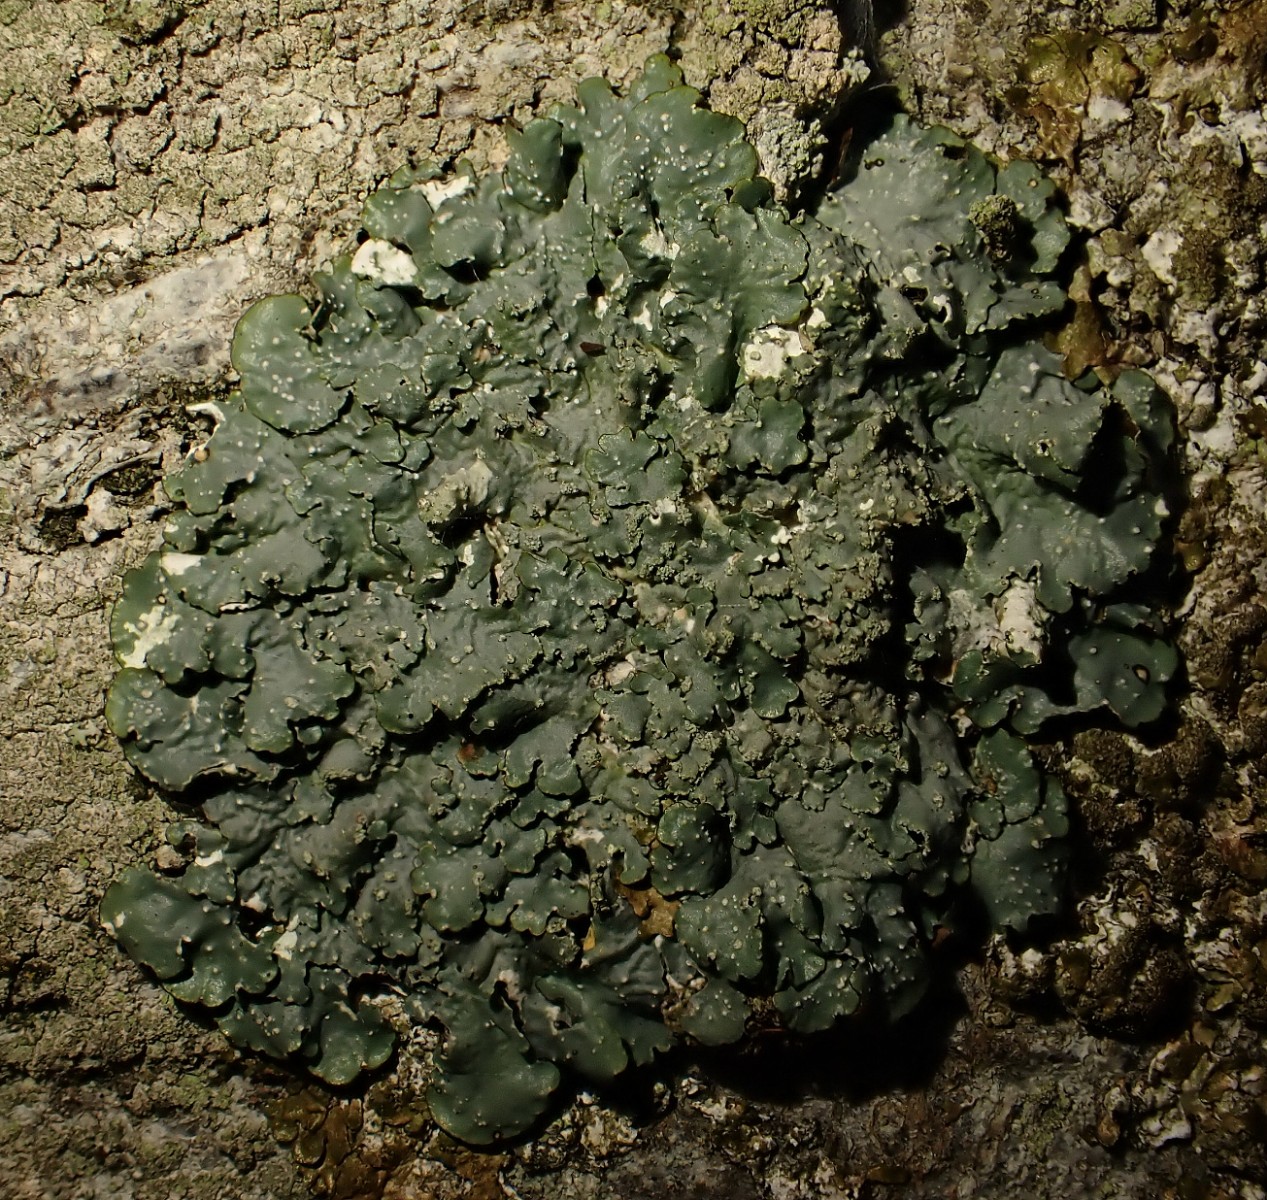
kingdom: Fungi
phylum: Ascomycota
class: Lecanoromycetes
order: Lecanorales
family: Parmeliaceae
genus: Punctelia
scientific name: Punctelia subrudecta
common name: punkt-skållav
